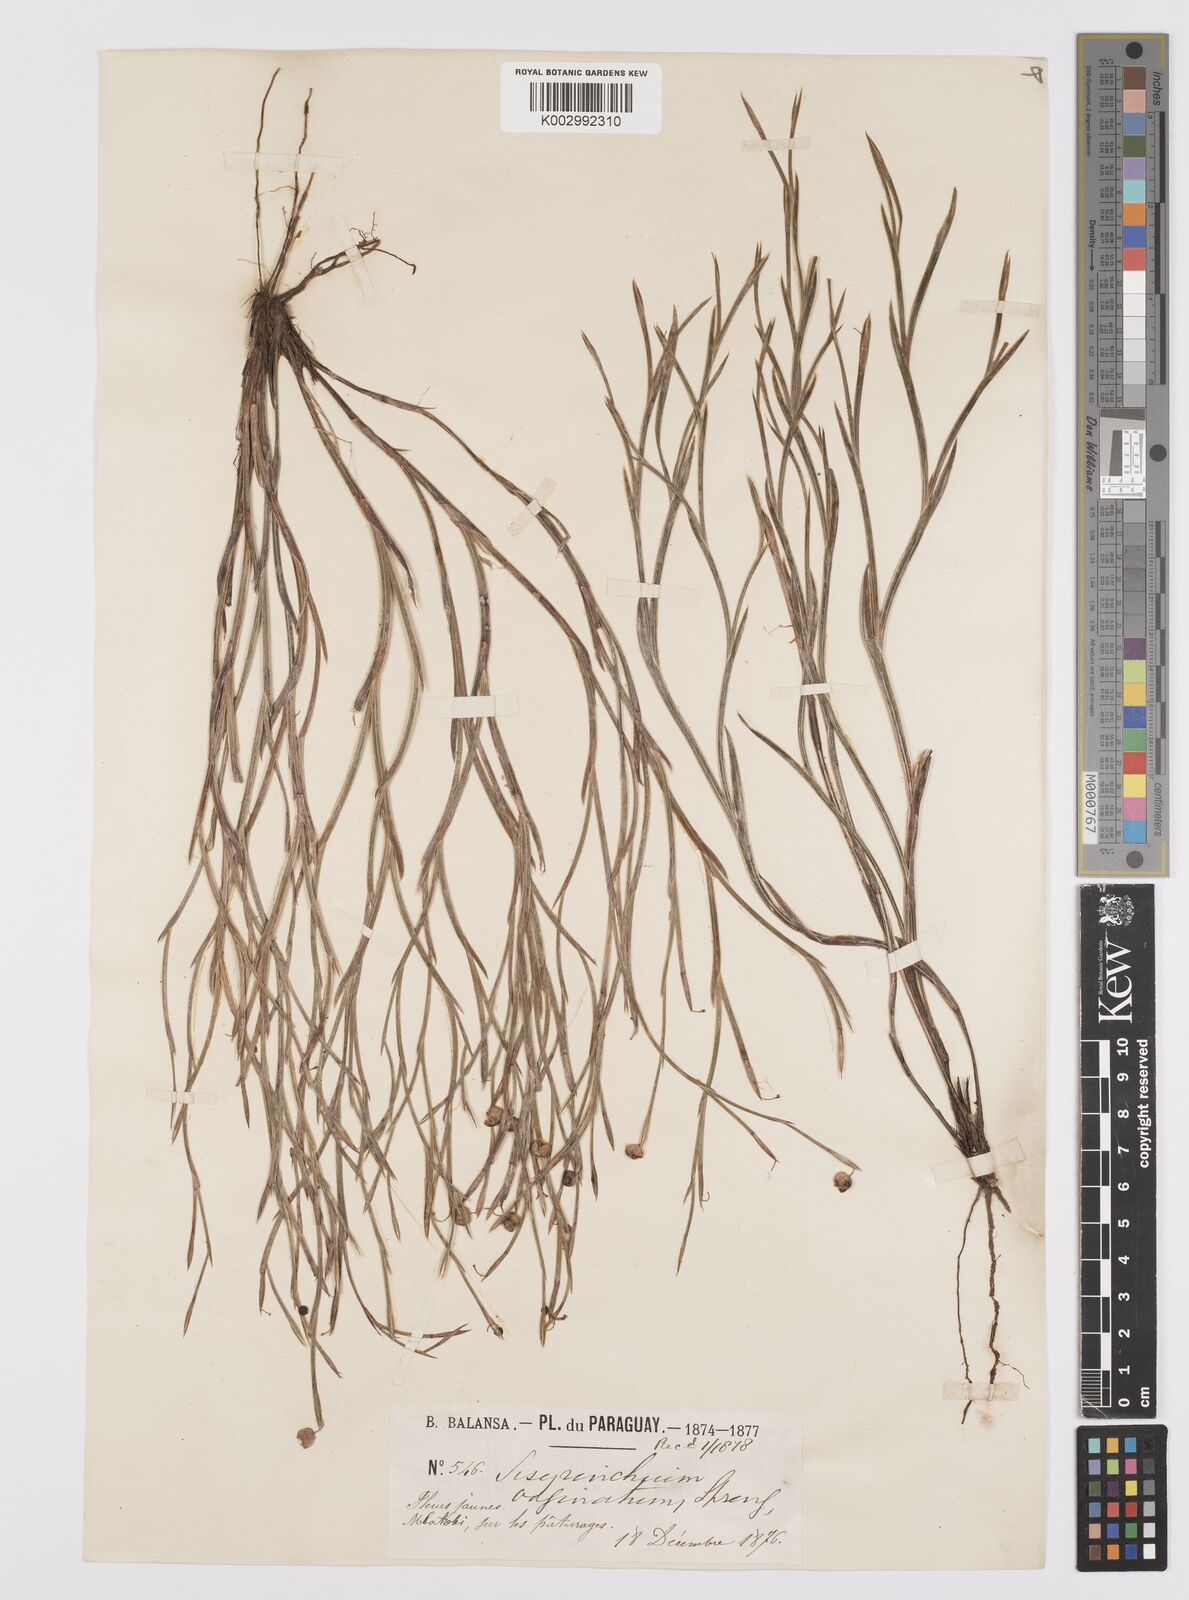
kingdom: Plantae
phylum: Tracheophyta
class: Liliopsida
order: Asparagales
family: Iridaceae
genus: Sisyrinchium
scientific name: Sisyrinchium vaginatum
